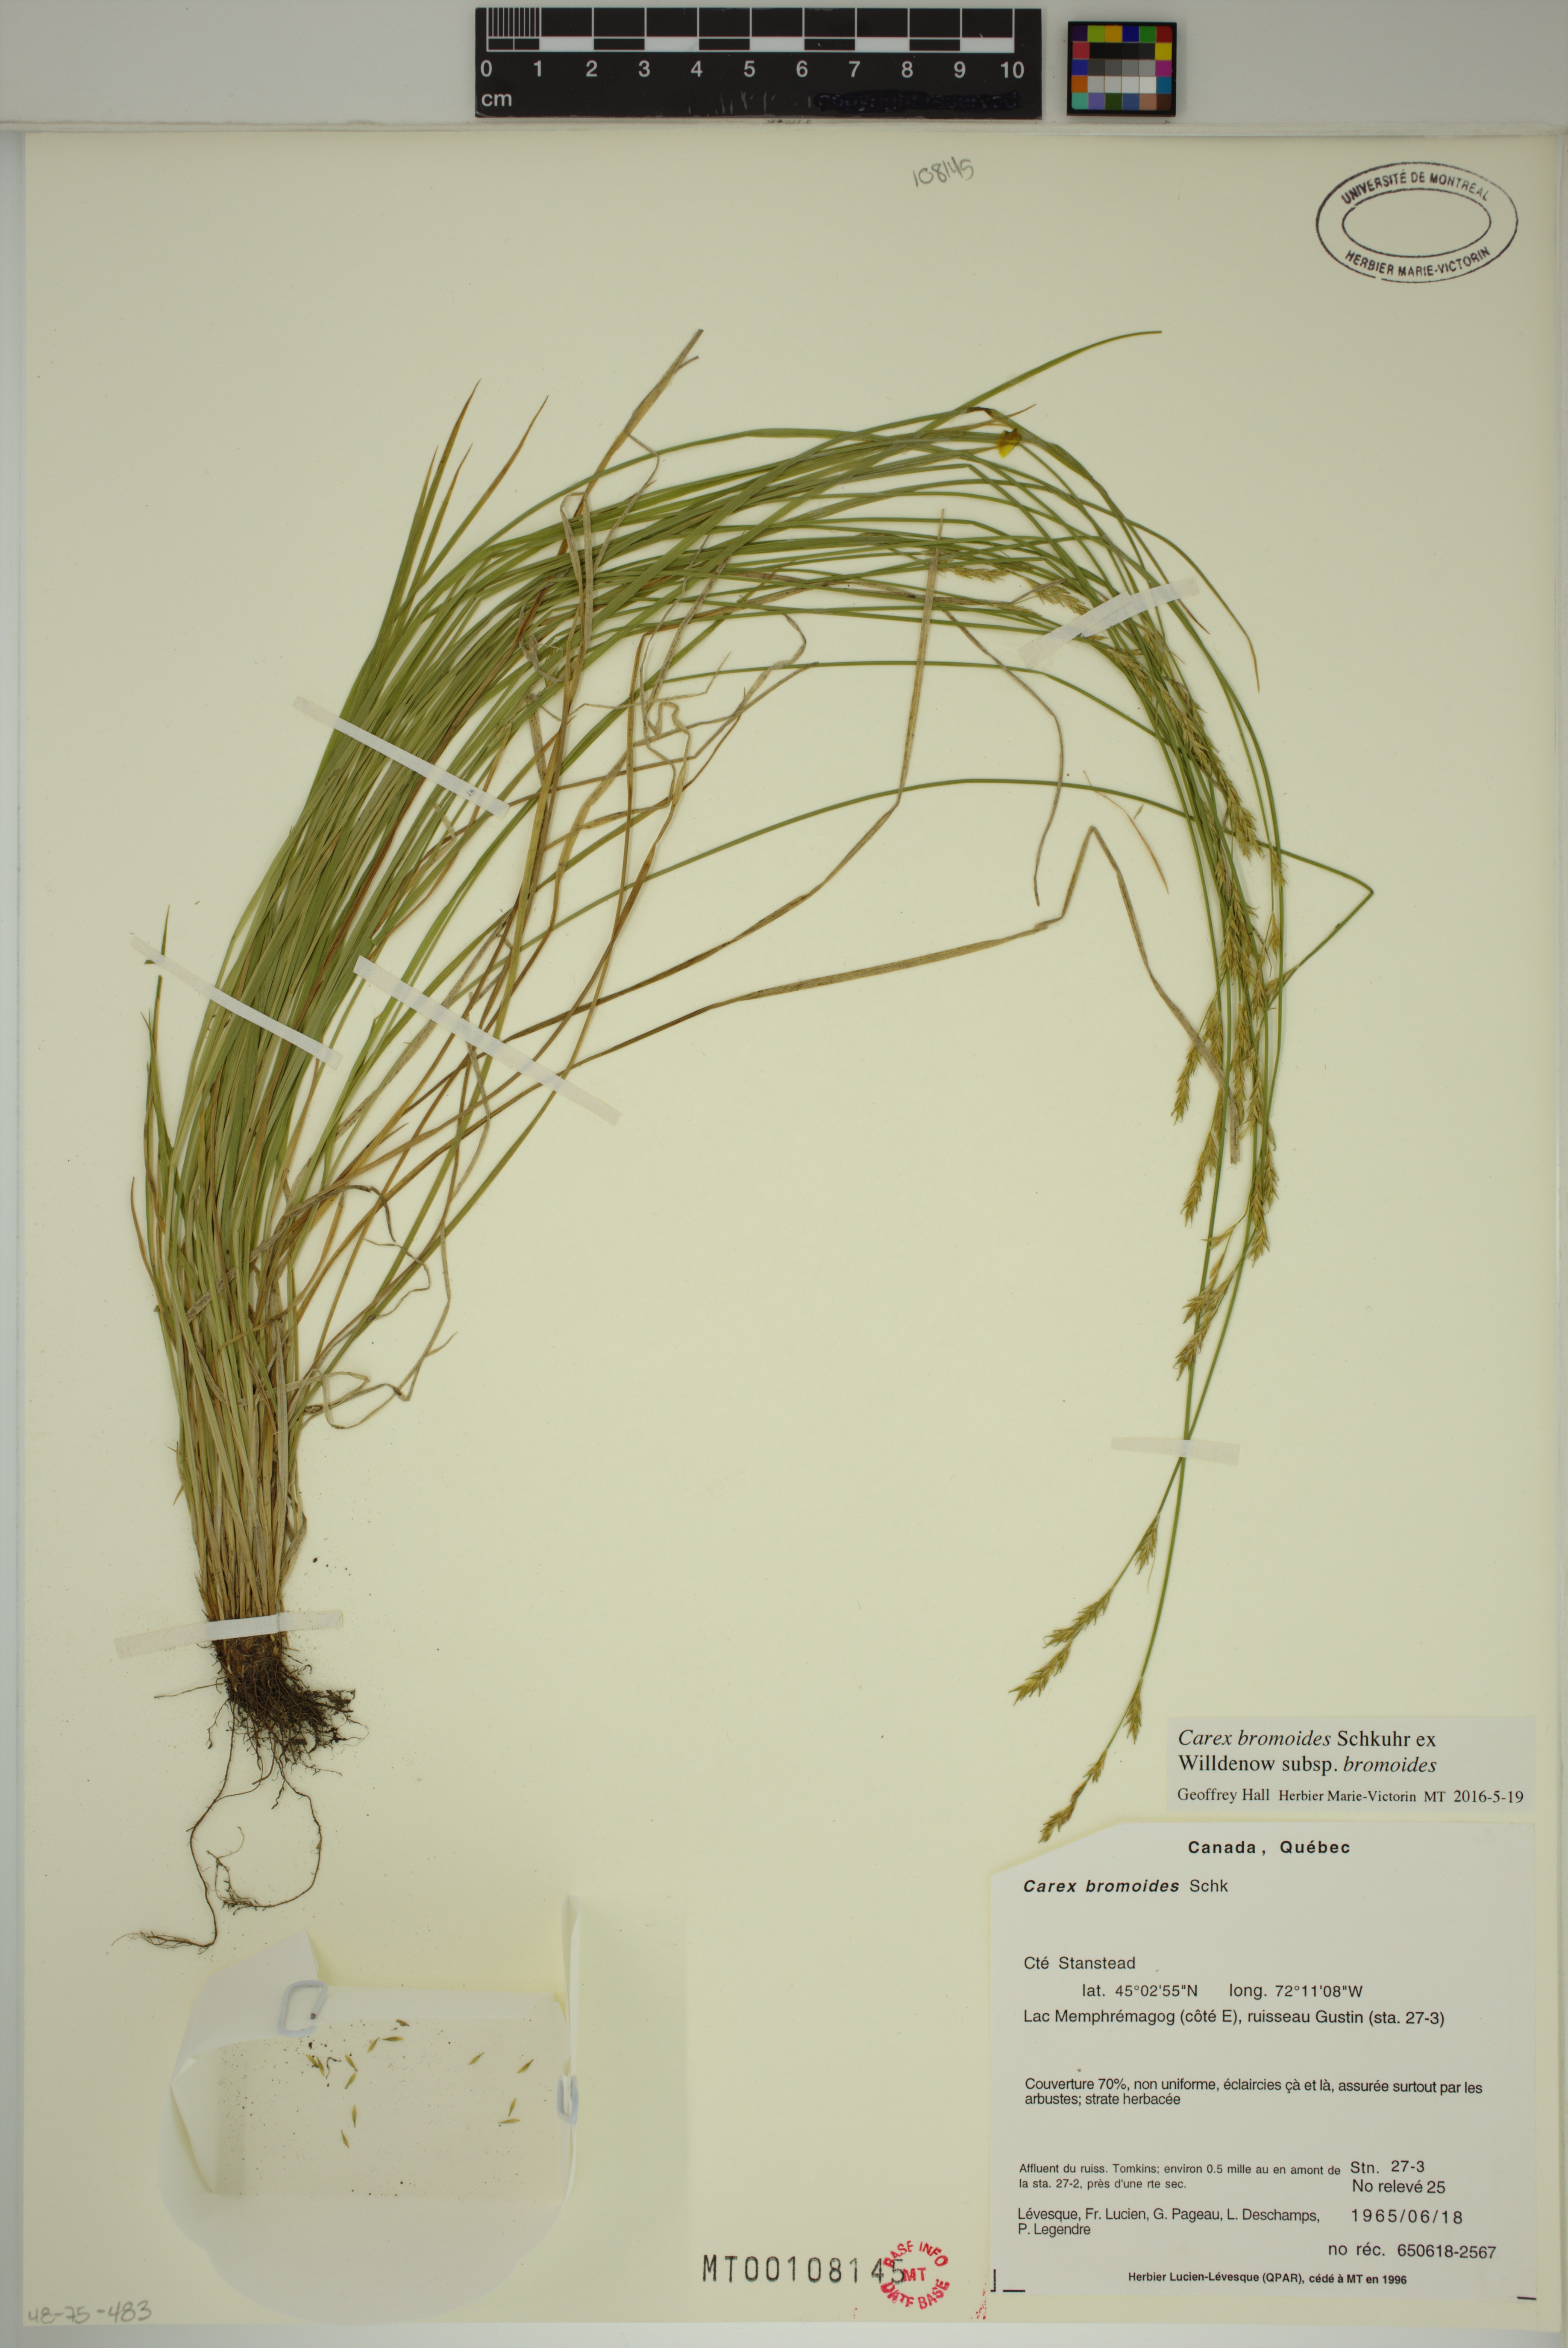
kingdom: Plantae
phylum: Tracheophyta
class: Liliopsida
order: Poales
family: Cyperaceae
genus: Carex
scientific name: Carex bromoides
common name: Brome hummock sedge
